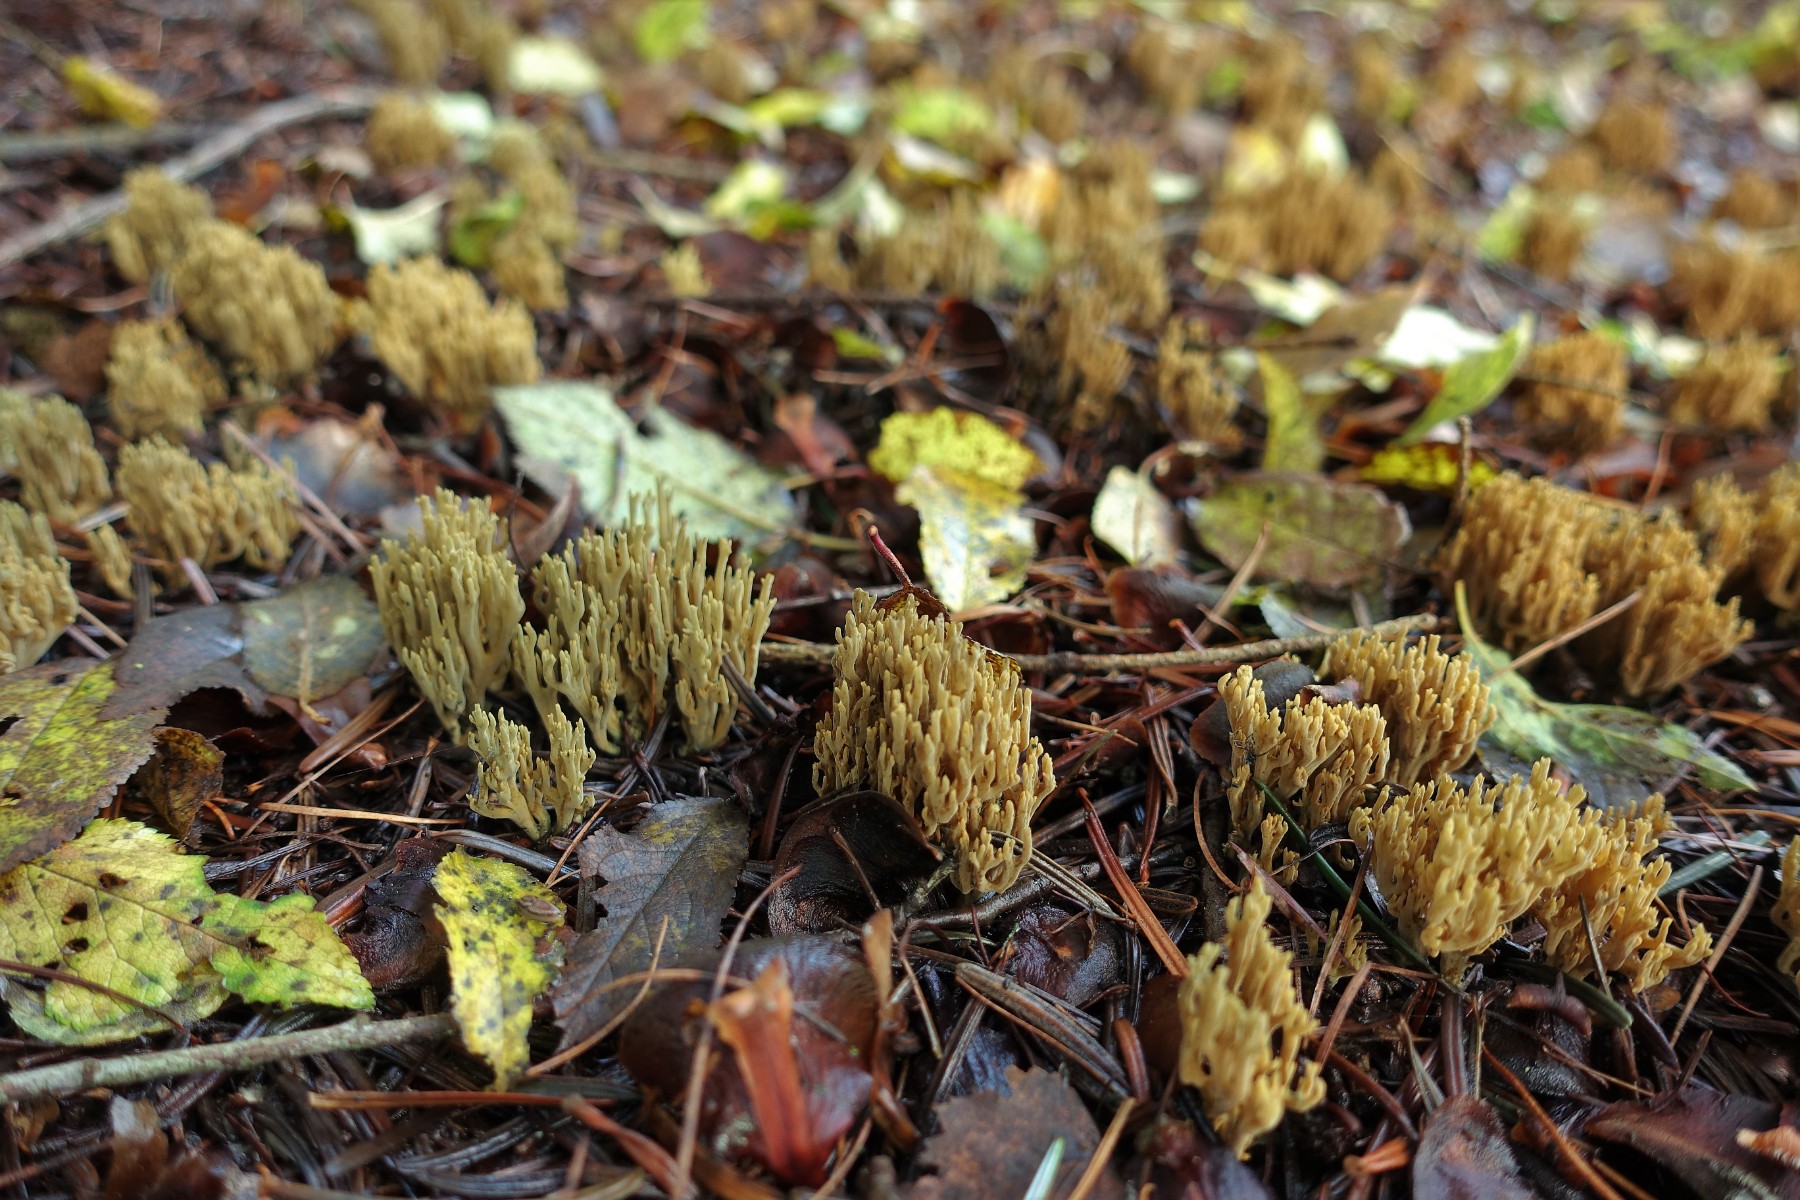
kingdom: Fungi
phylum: Basidiomycota
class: Agaricomycetes
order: Gomphales
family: Gomphaceae
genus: Phaeoclavulina
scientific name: Phaeoclavulina abietina
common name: gulgrøn koralsvamp
